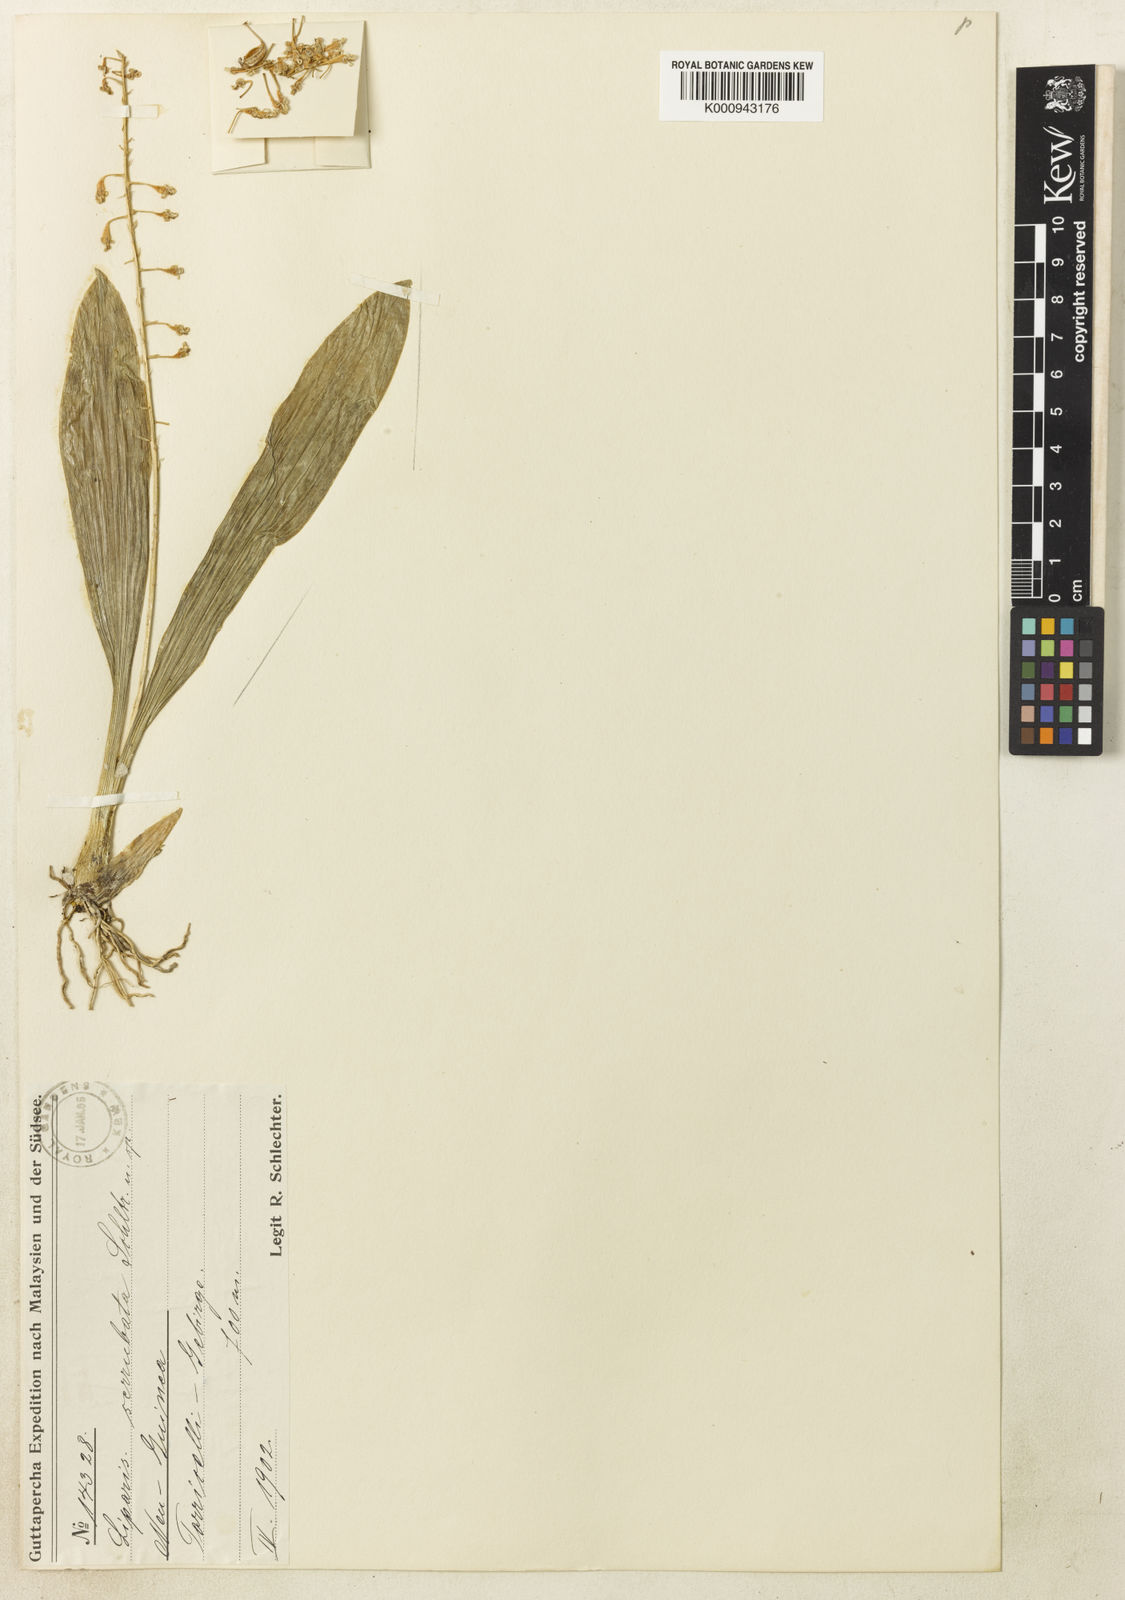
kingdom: Plantae
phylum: Tracheophyta
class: Liliopsida
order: Asparagales
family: Orchidaceae
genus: Liparis
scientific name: Liparis serrulata
